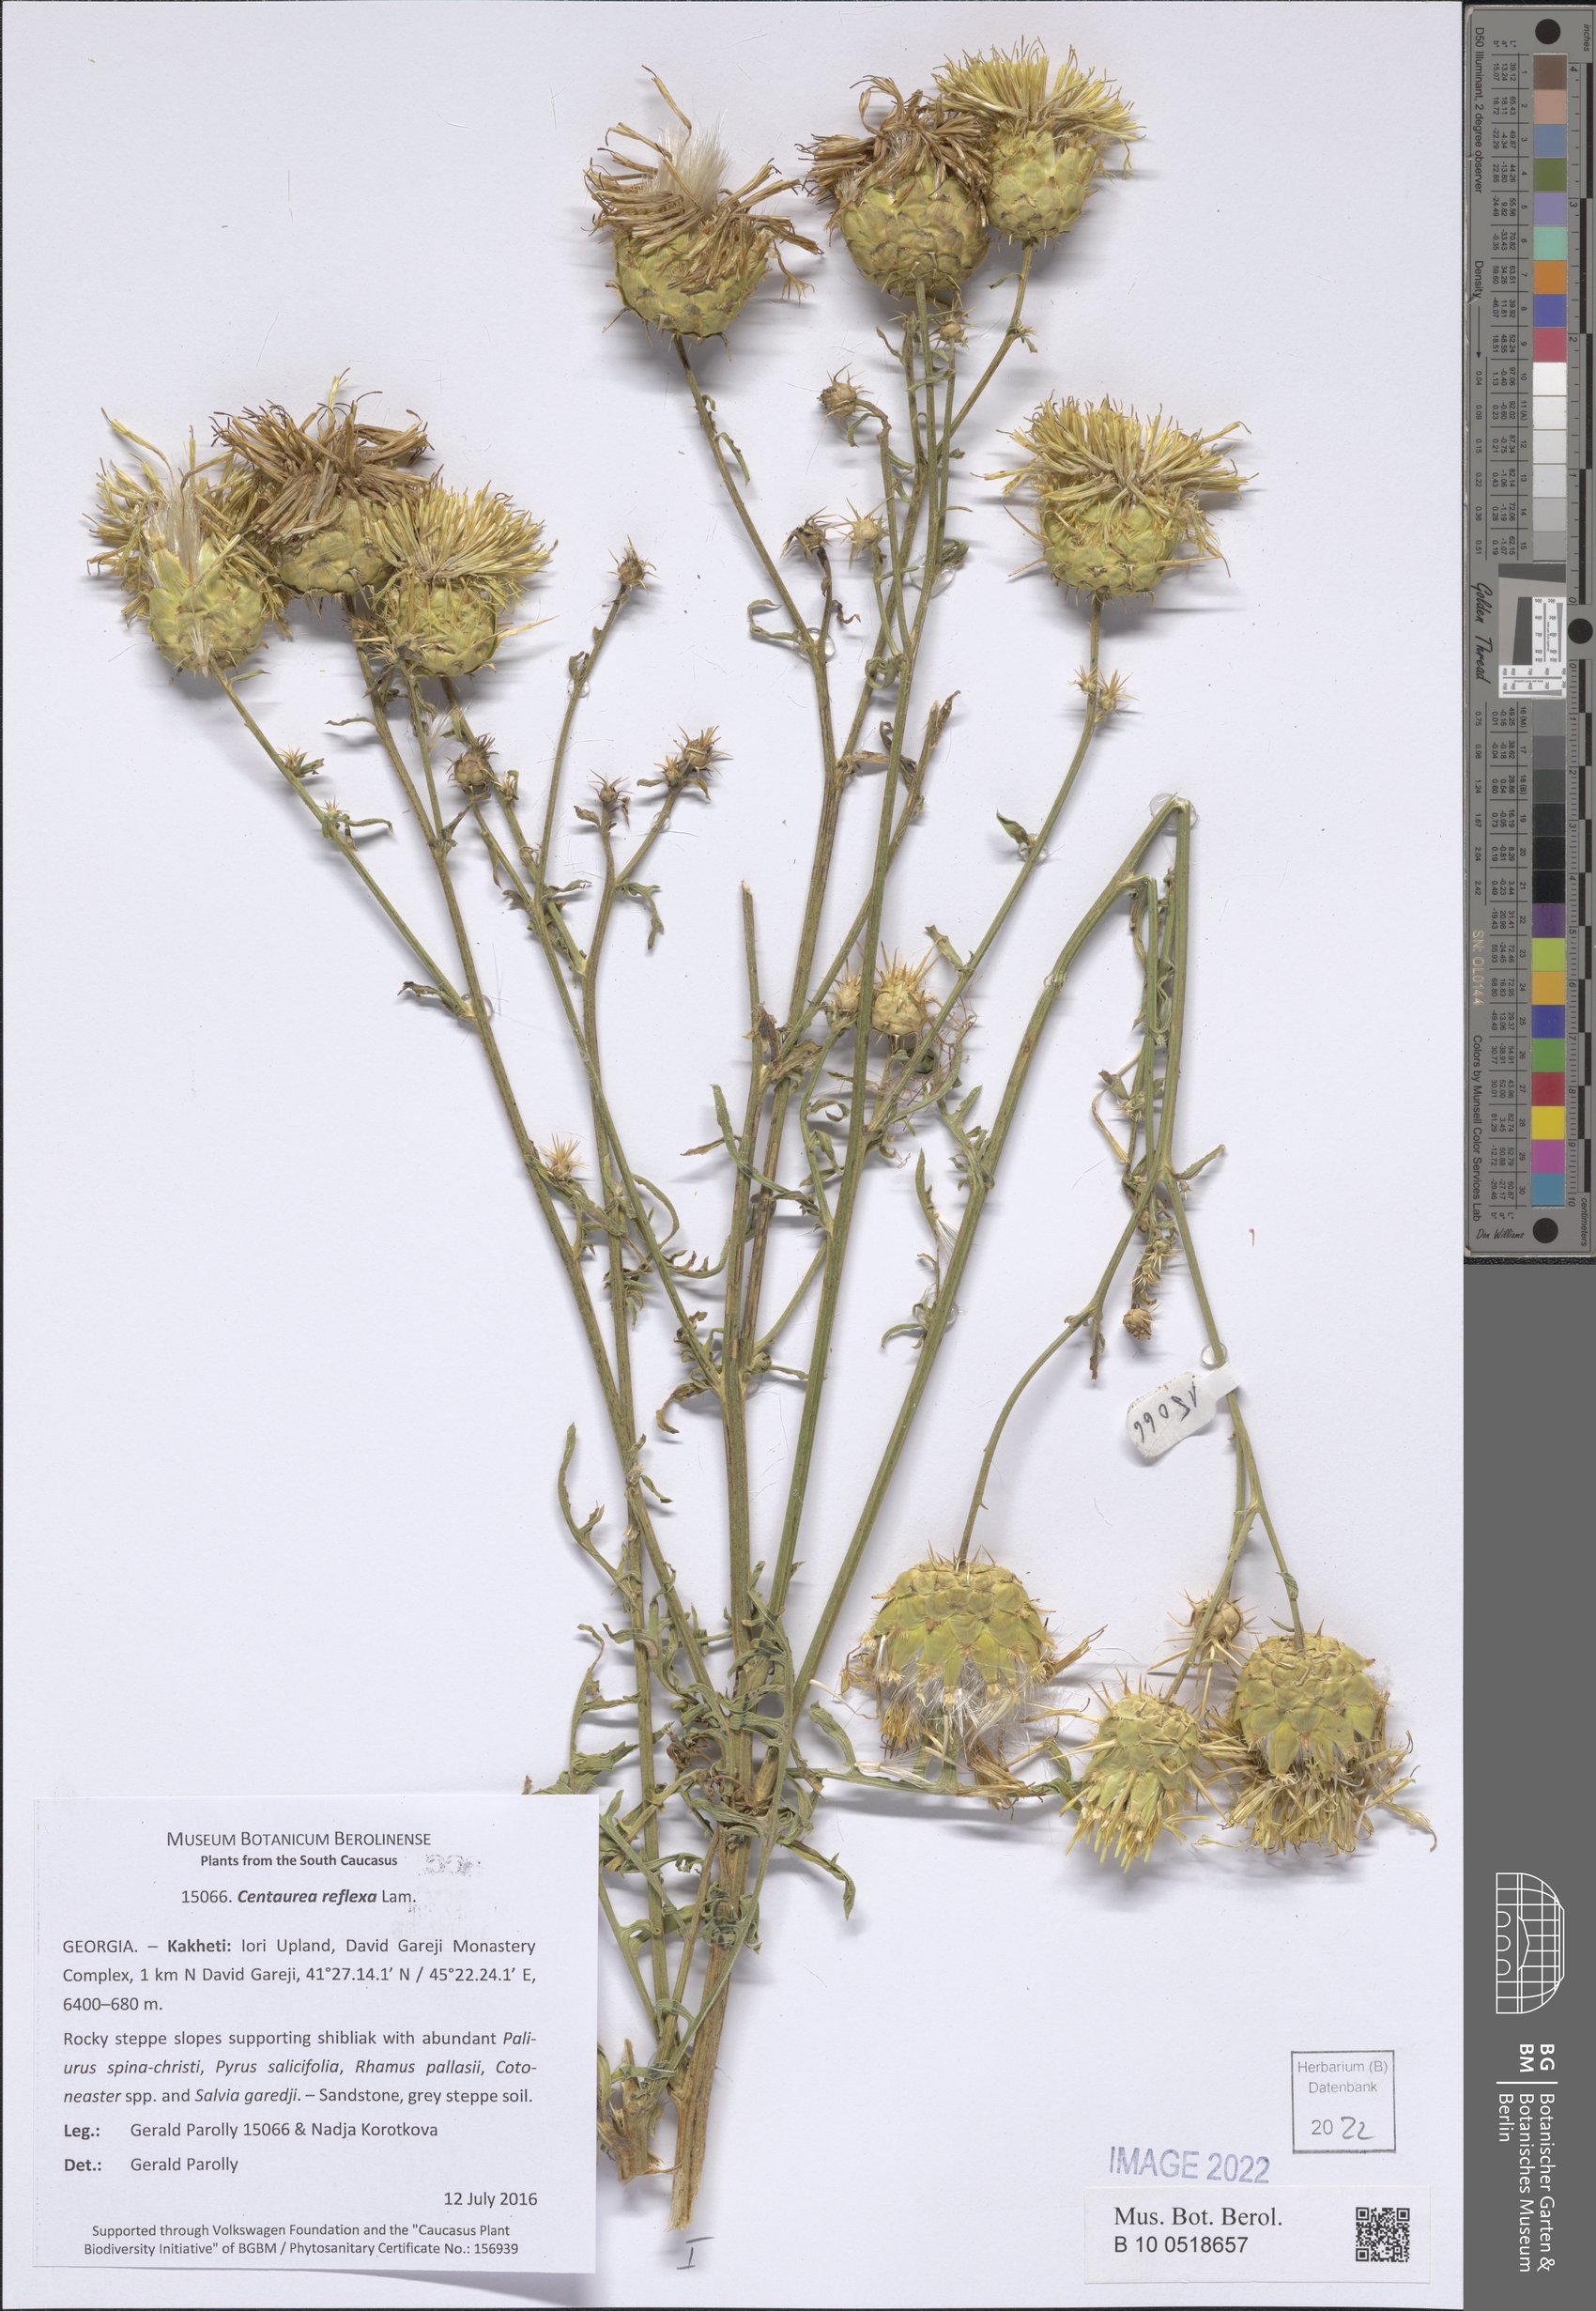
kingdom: Plantae
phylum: Tracheophyta
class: Magnoliopsida
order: Asterales
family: Asteraceae
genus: Centaurea
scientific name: Centaurea reflexa
